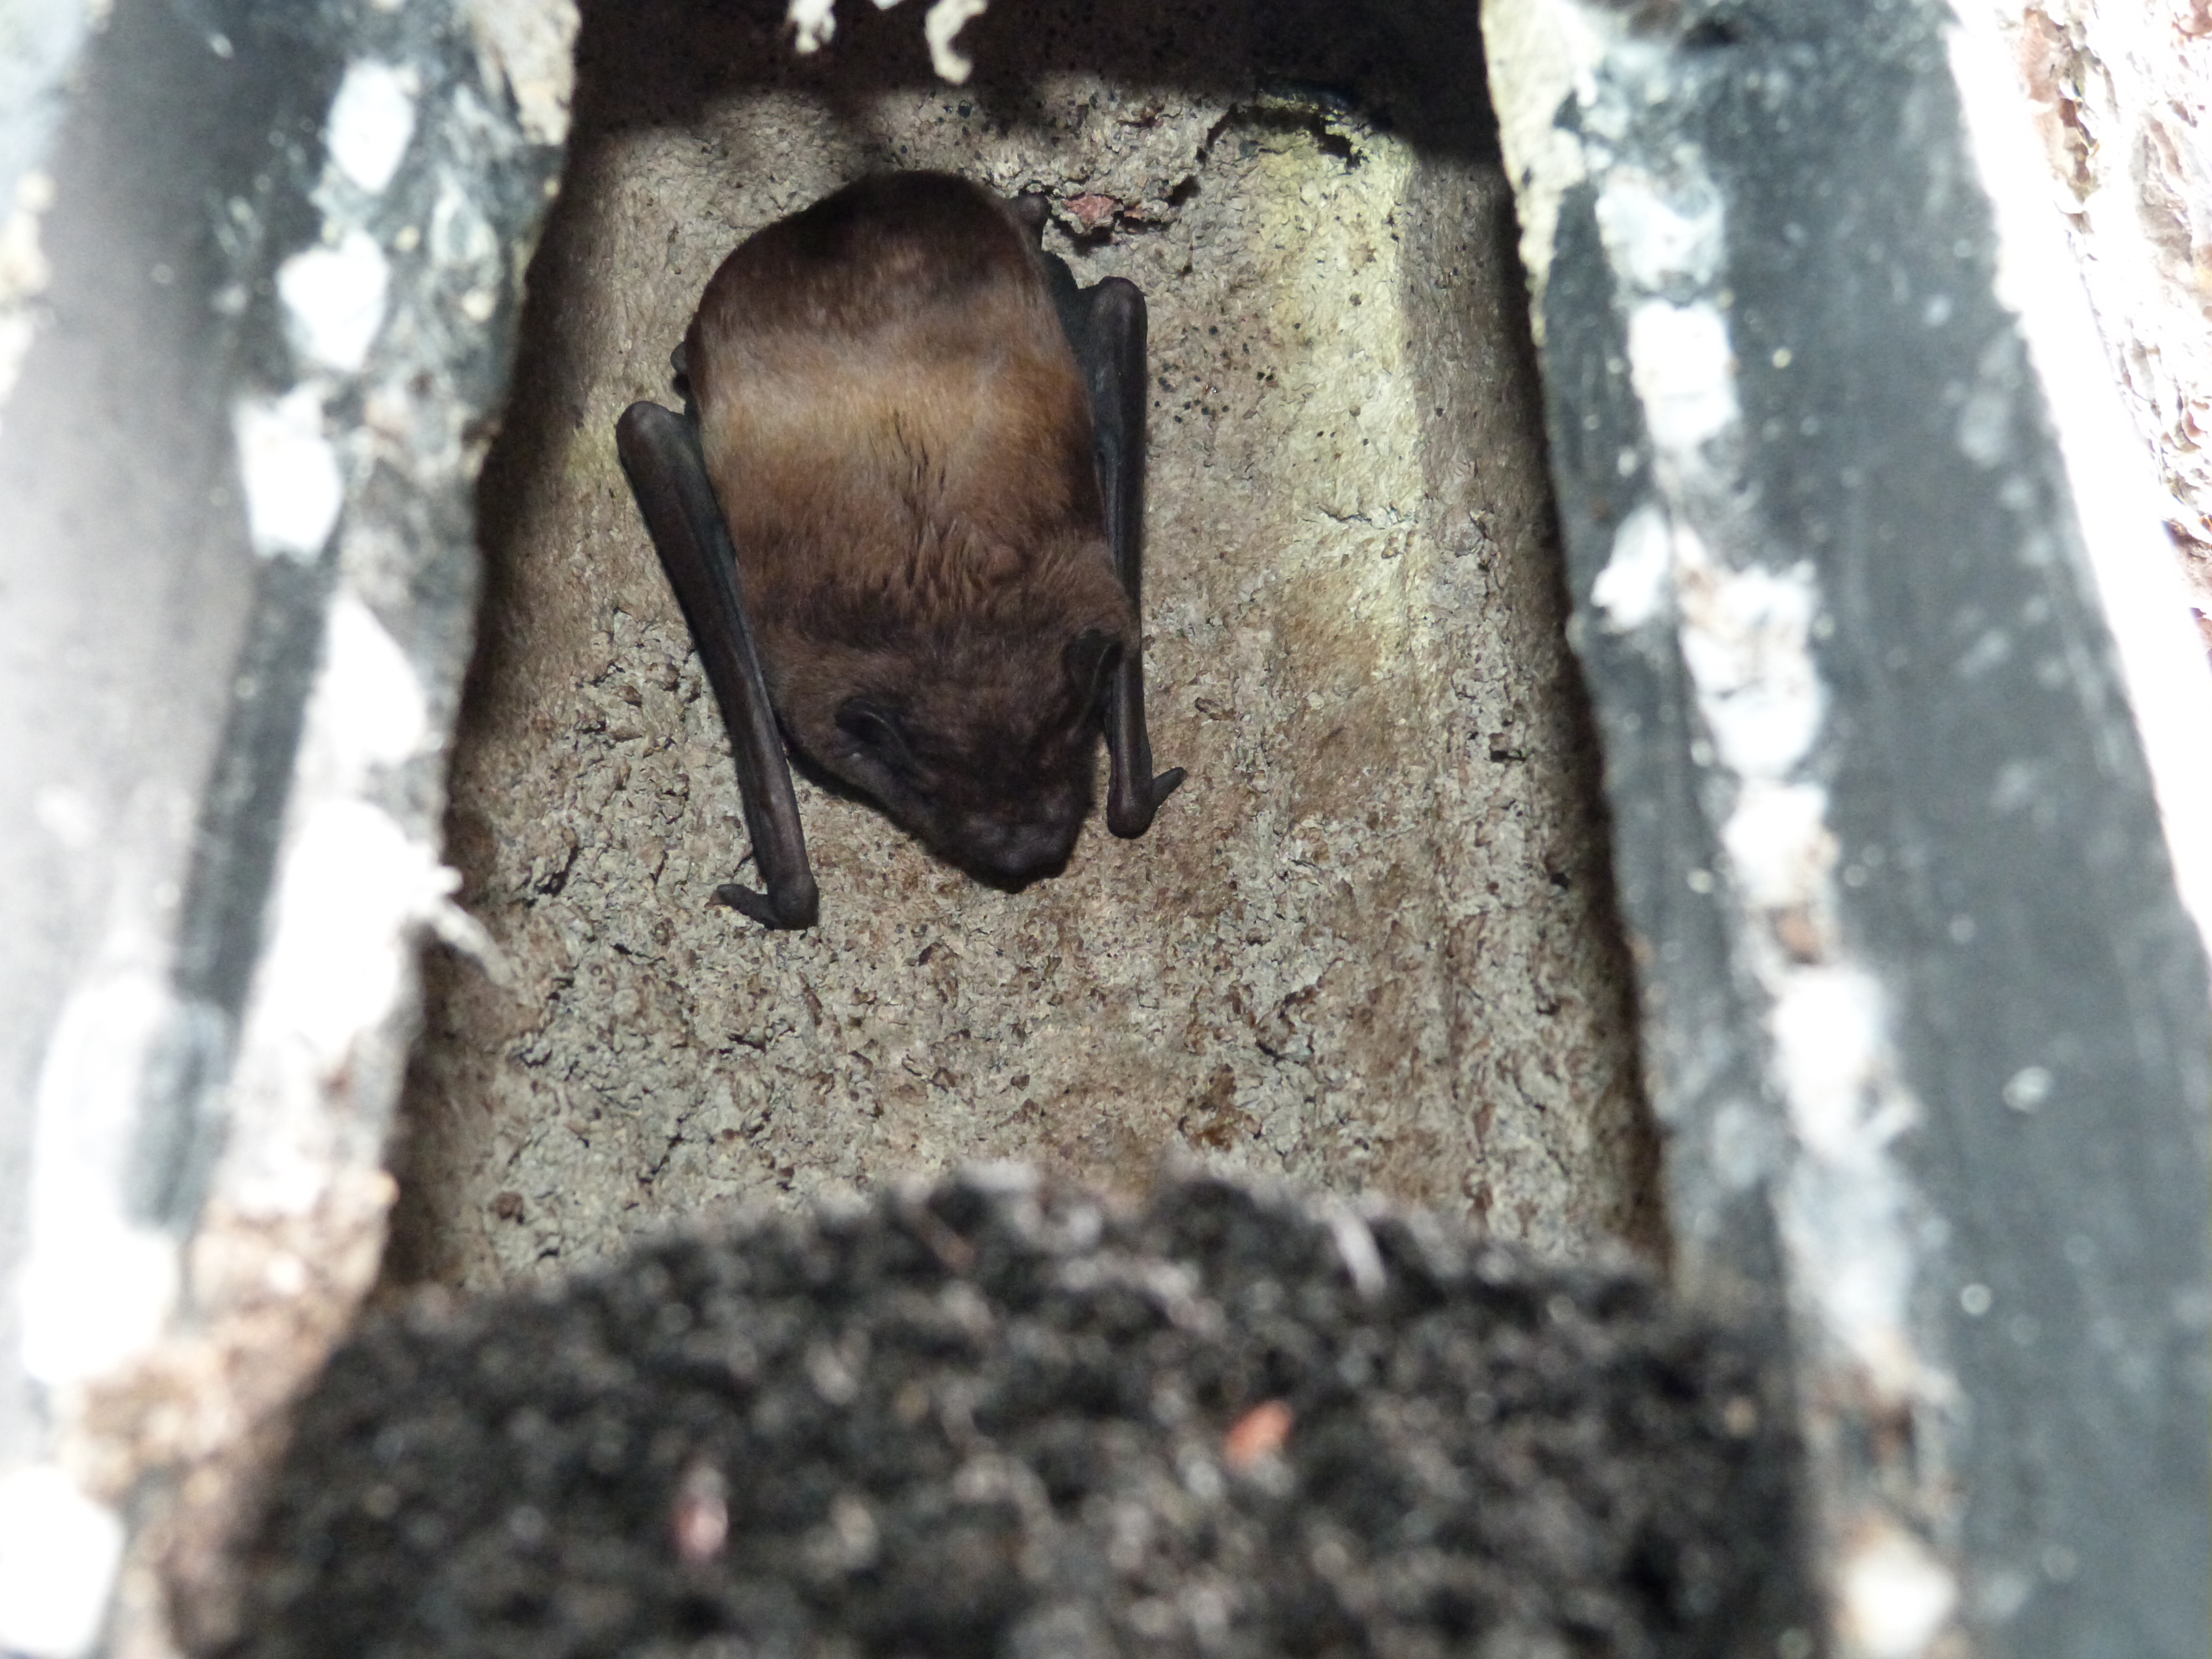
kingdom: Animalia
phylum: Chordata
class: Mammalia
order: Chiroptera
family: Vespertilionidae
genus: Nyctalus
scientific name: Nyctalus noctula
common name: Noctule
